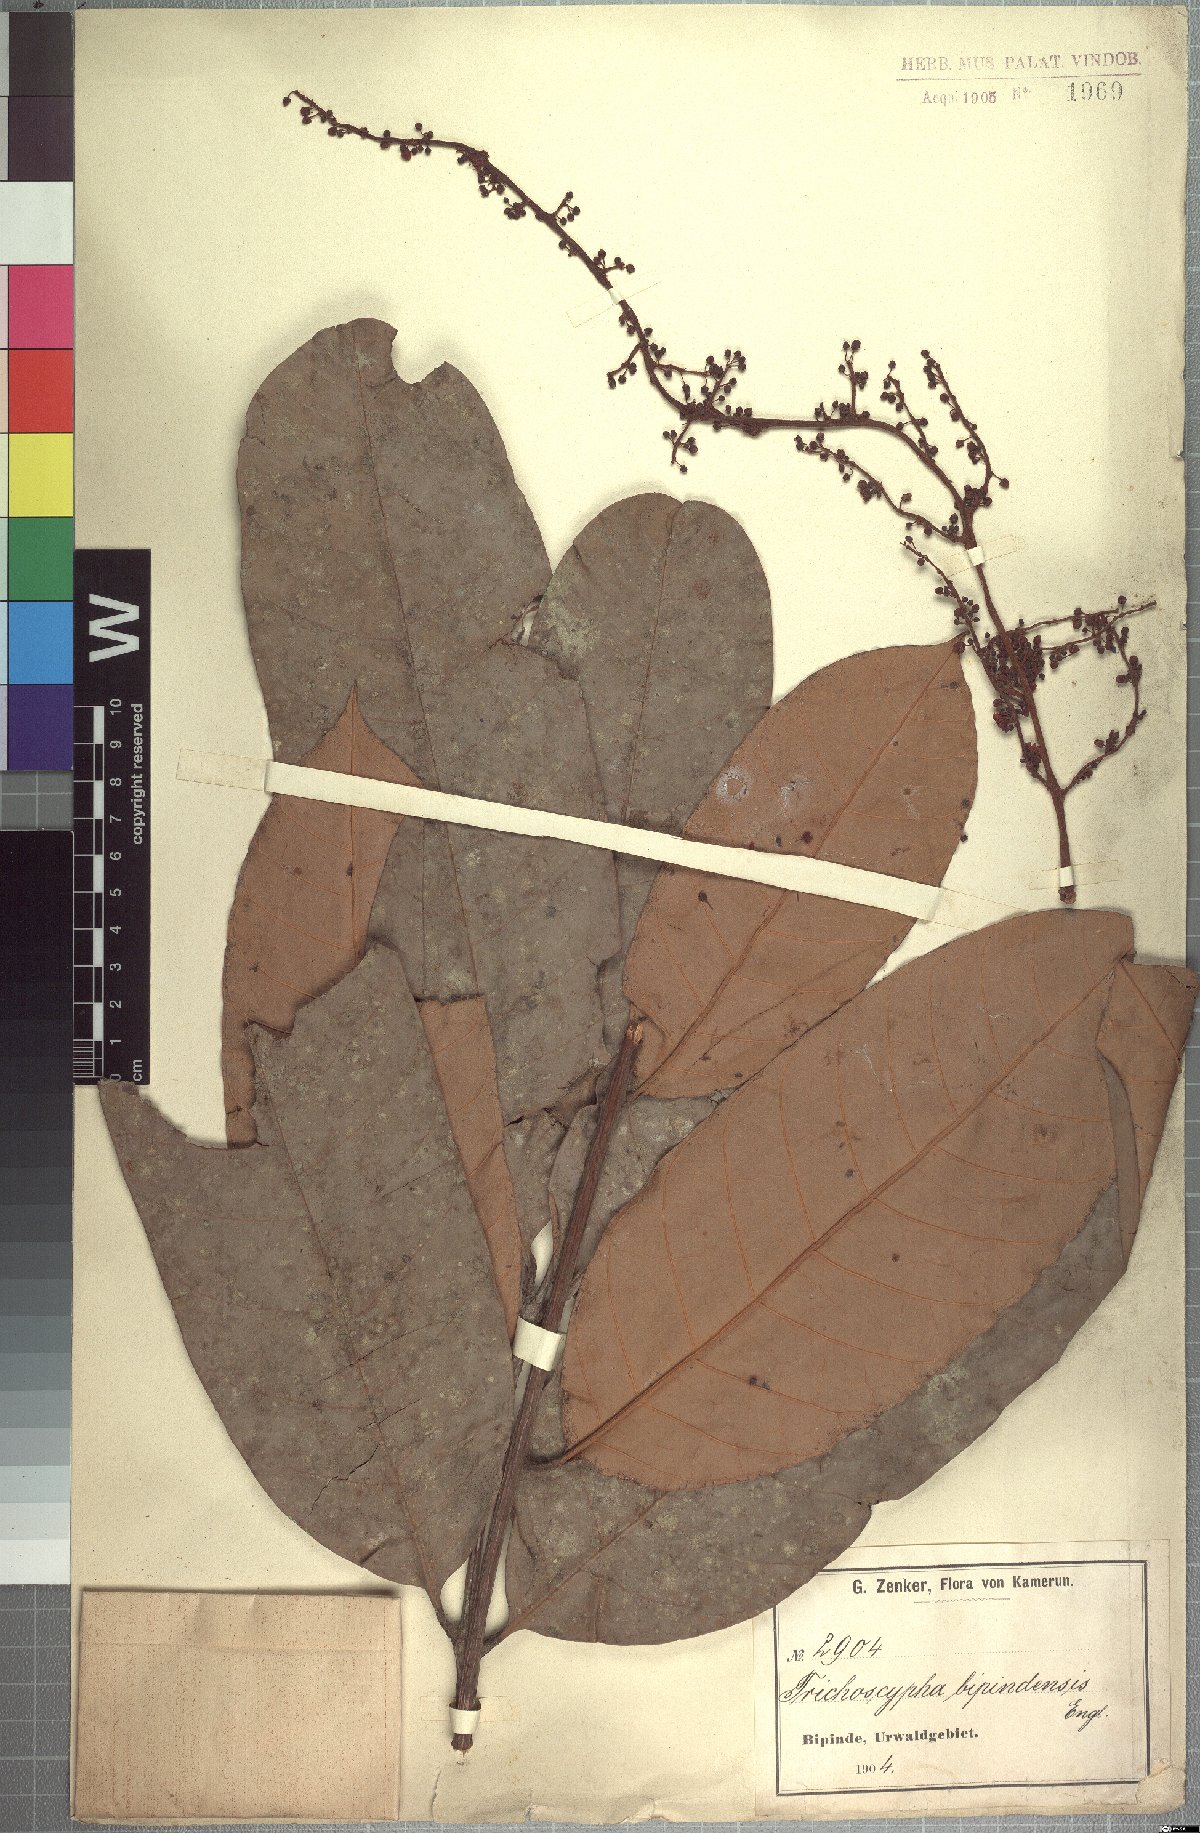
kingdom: Plantae
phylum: Tracheophyta
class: Magnoliopsida
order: Sapindales
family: Anacardiaceae
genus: Trichoscypha
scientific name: Trichoscypha oliveri
